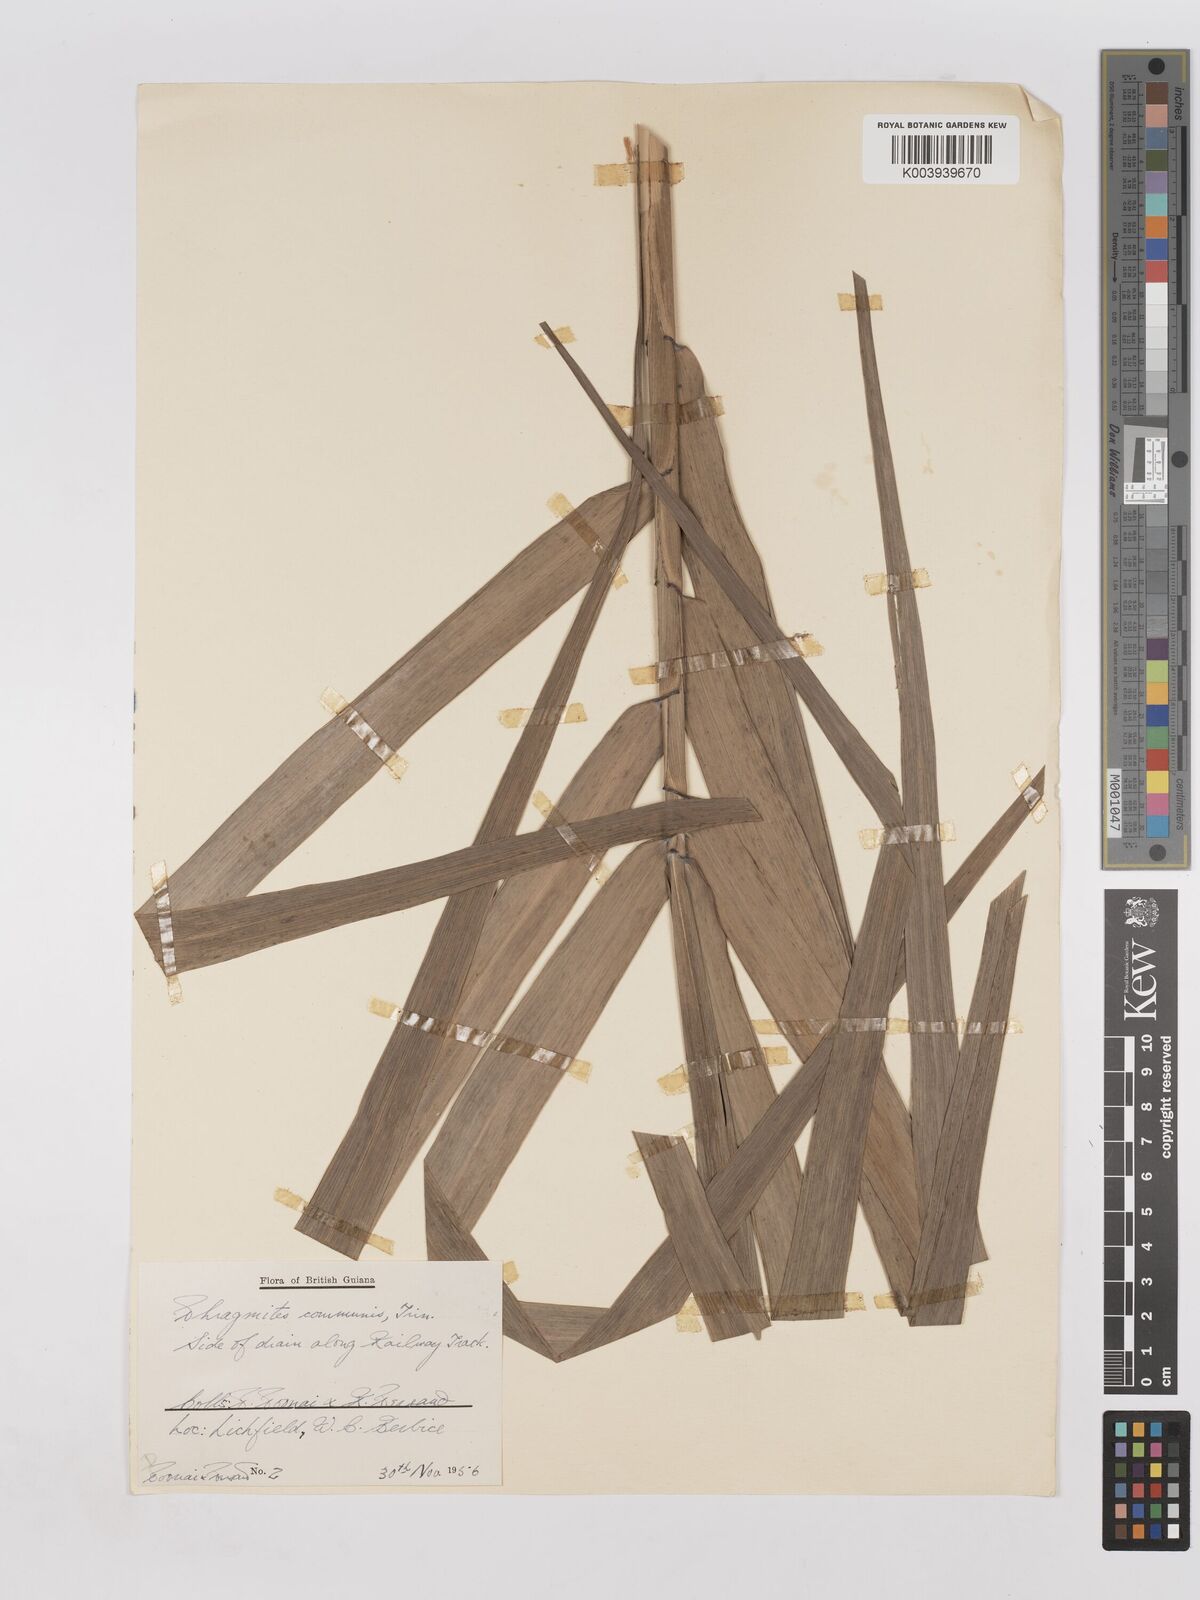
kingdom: Plantae
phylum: Tracheophyta
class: Liliopsida
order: Poales
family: Poaceae
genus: Phragmites
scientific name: Phragmites australis
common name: Common reed
